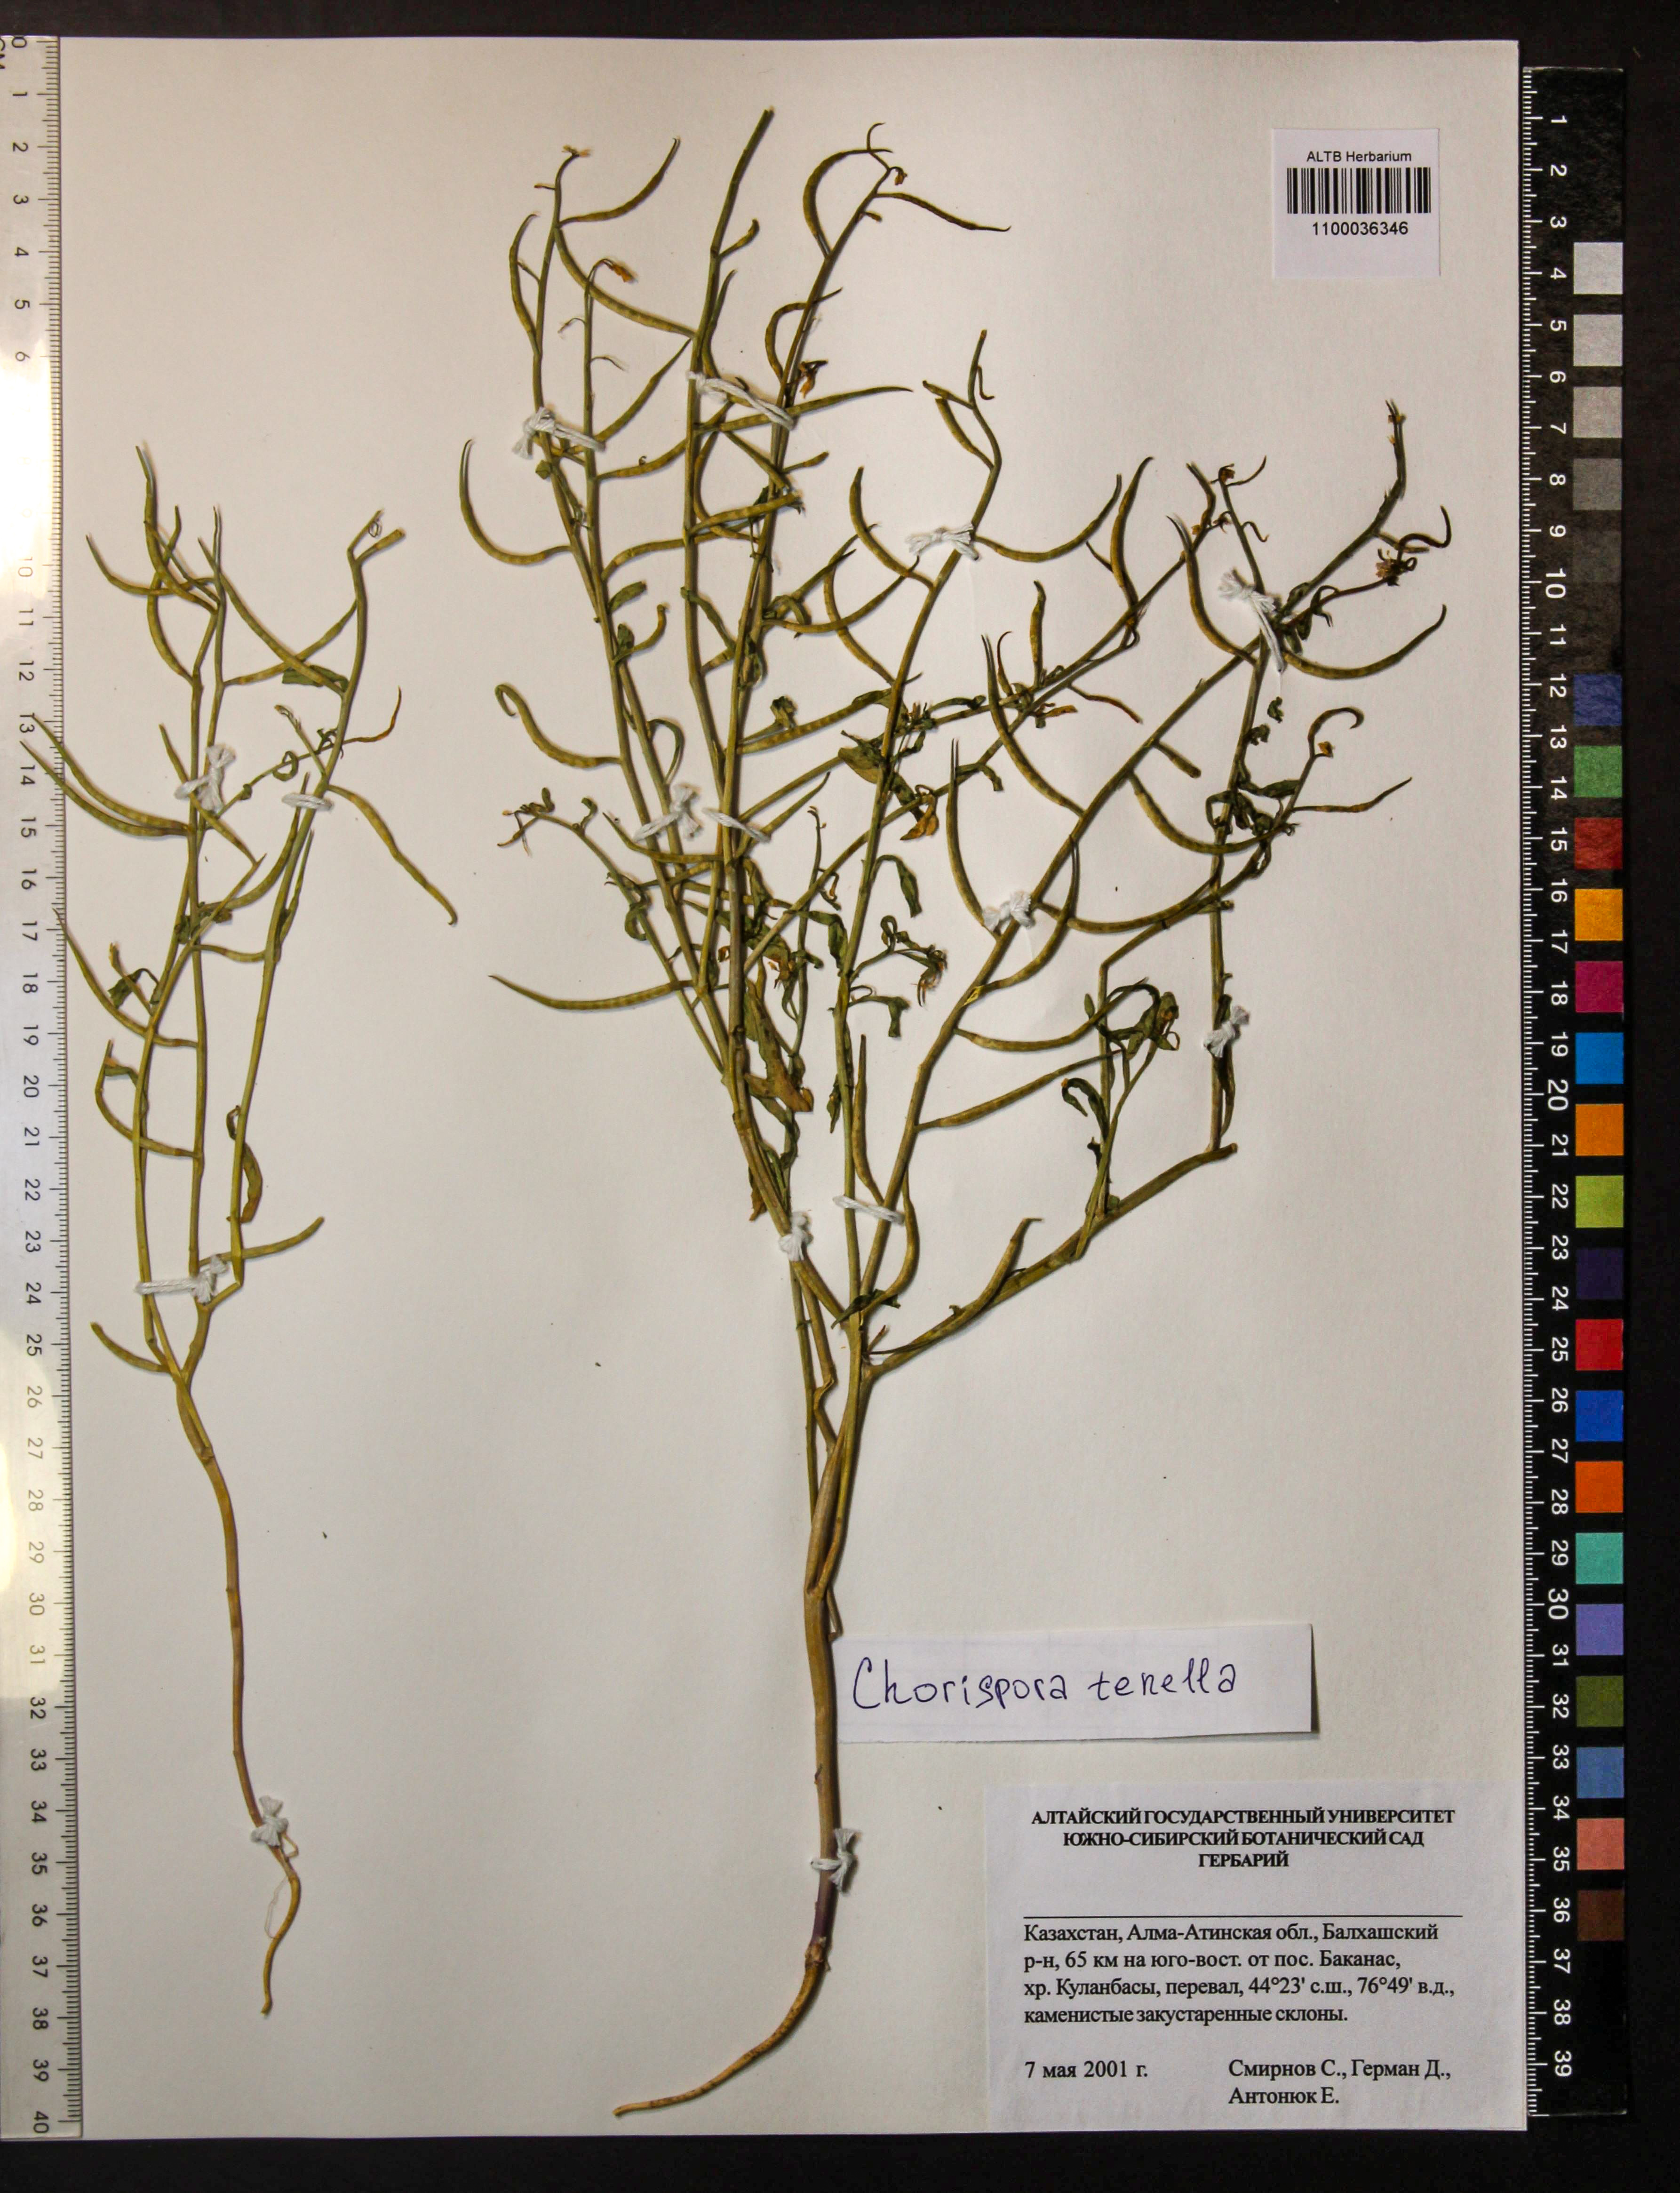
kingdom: Plantae
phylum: Tracheophyta
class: Magnoliopsida
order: Brassicales
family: Brassicaceae
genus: Chorispora
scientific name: Chorispora tenella
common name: Crossflower
